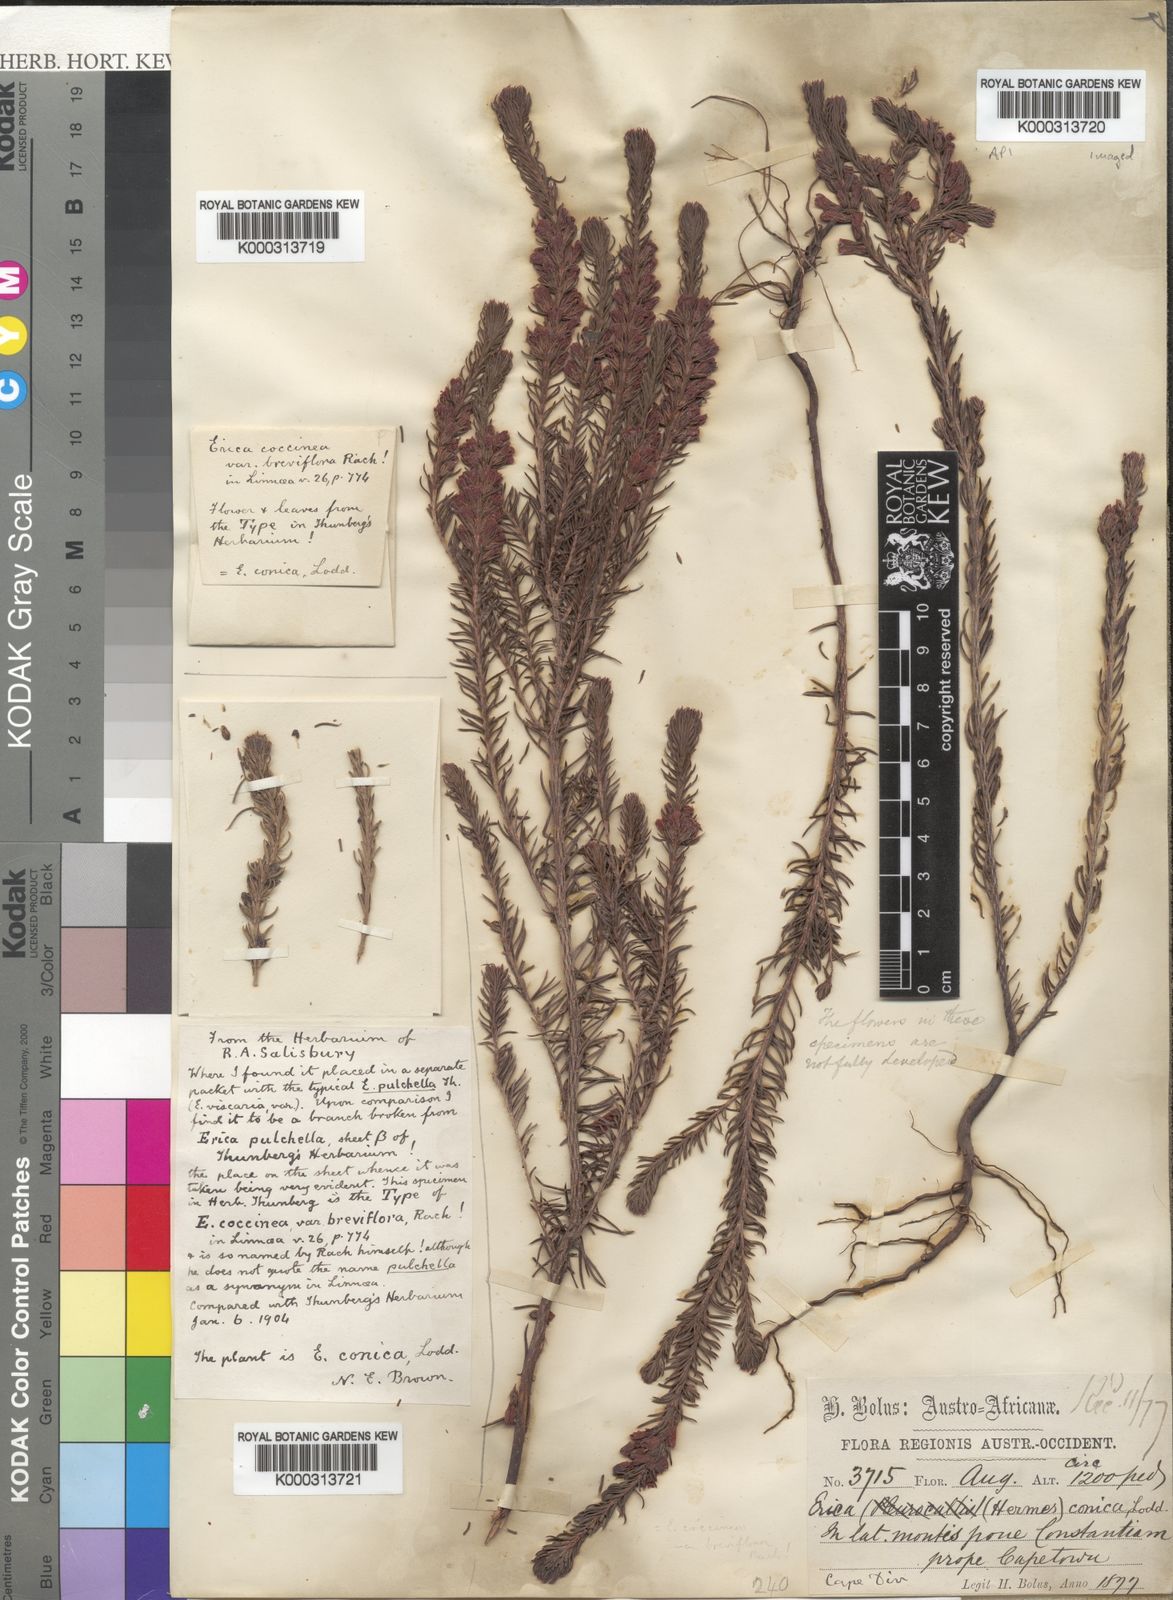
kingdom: Plantae
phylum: Tracheophyta
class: Magnoliopsida
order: Ericales
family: Ericaceae
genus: Erica
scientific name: Erica
